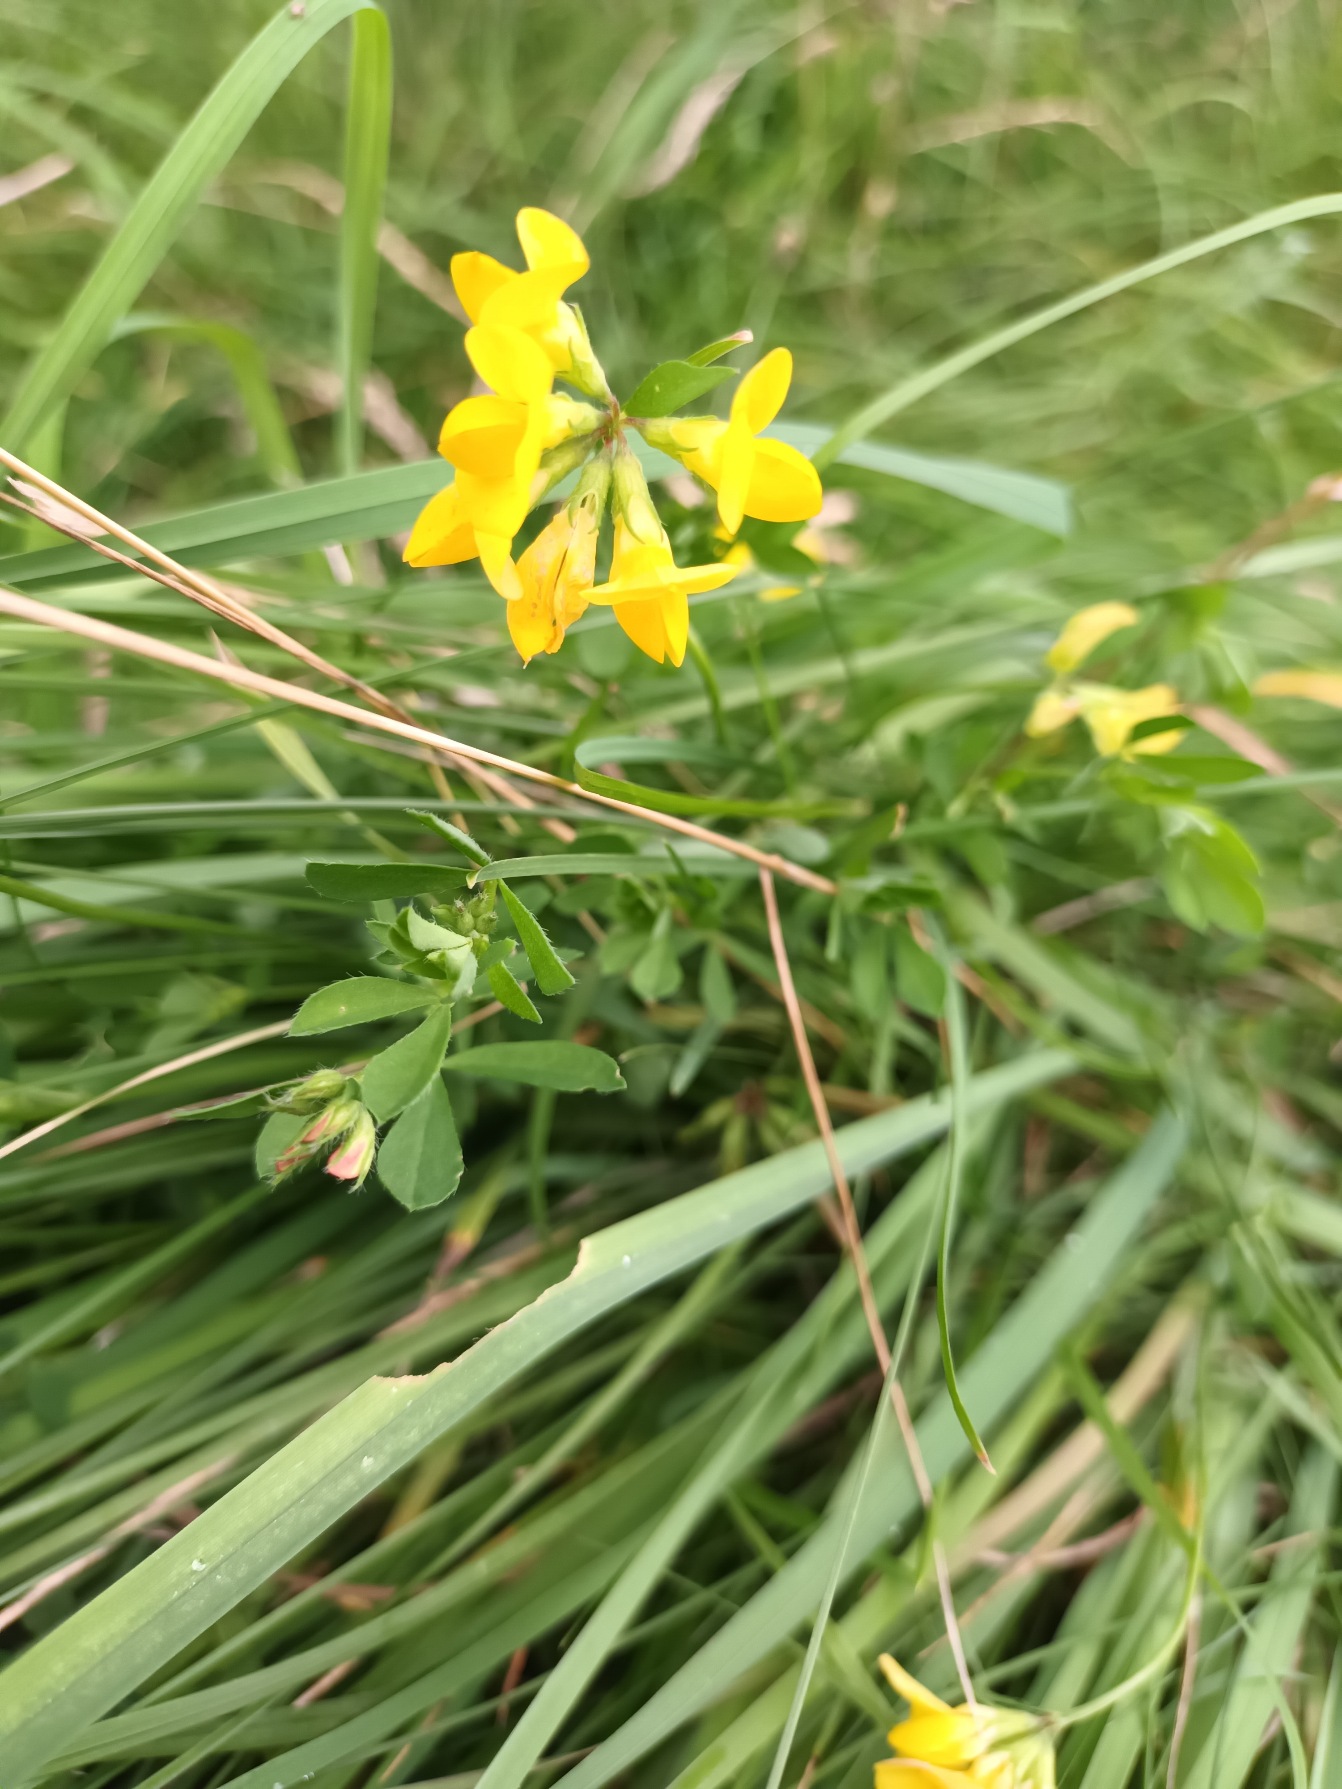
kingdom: Plantae
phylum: Tracheophyta
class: Magnoliopsida
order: Fabales
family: Fabaceae
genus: Lotus
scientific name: Lotus corniculatus
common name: Almindelig kællingetand
